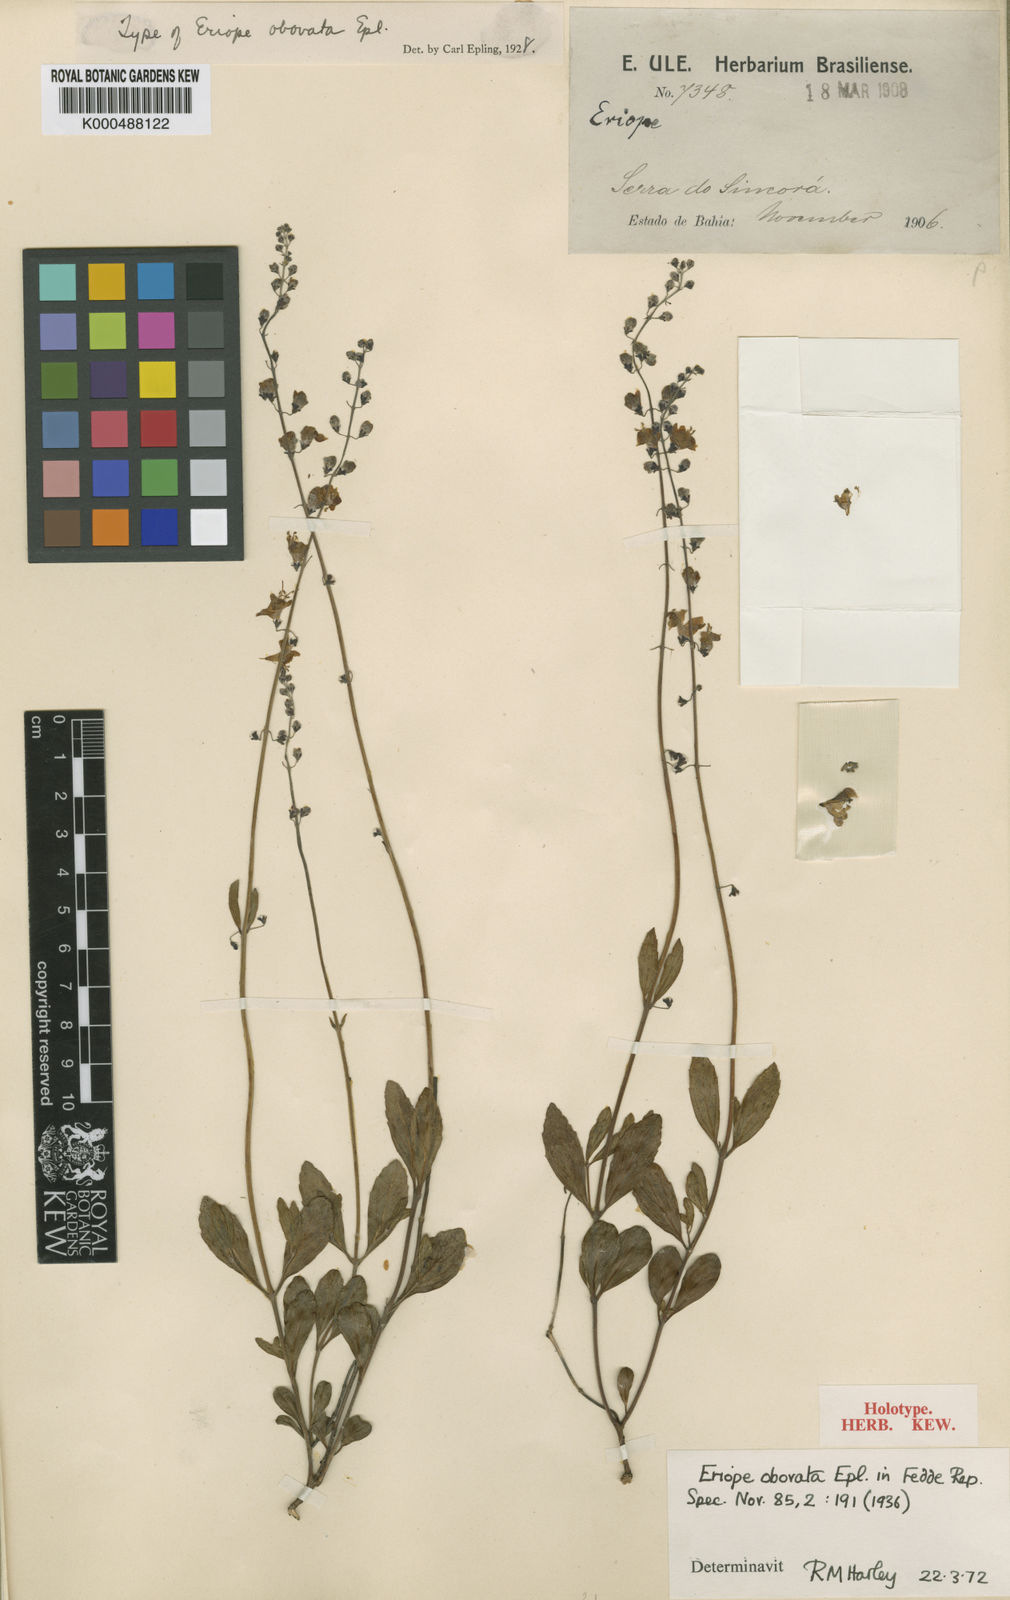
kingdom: Plantae
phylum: Tracheophyta
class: Magnoliopsida
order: Lamiales
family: Lamiaceae
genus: Eriope
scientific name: Eriope obovata
